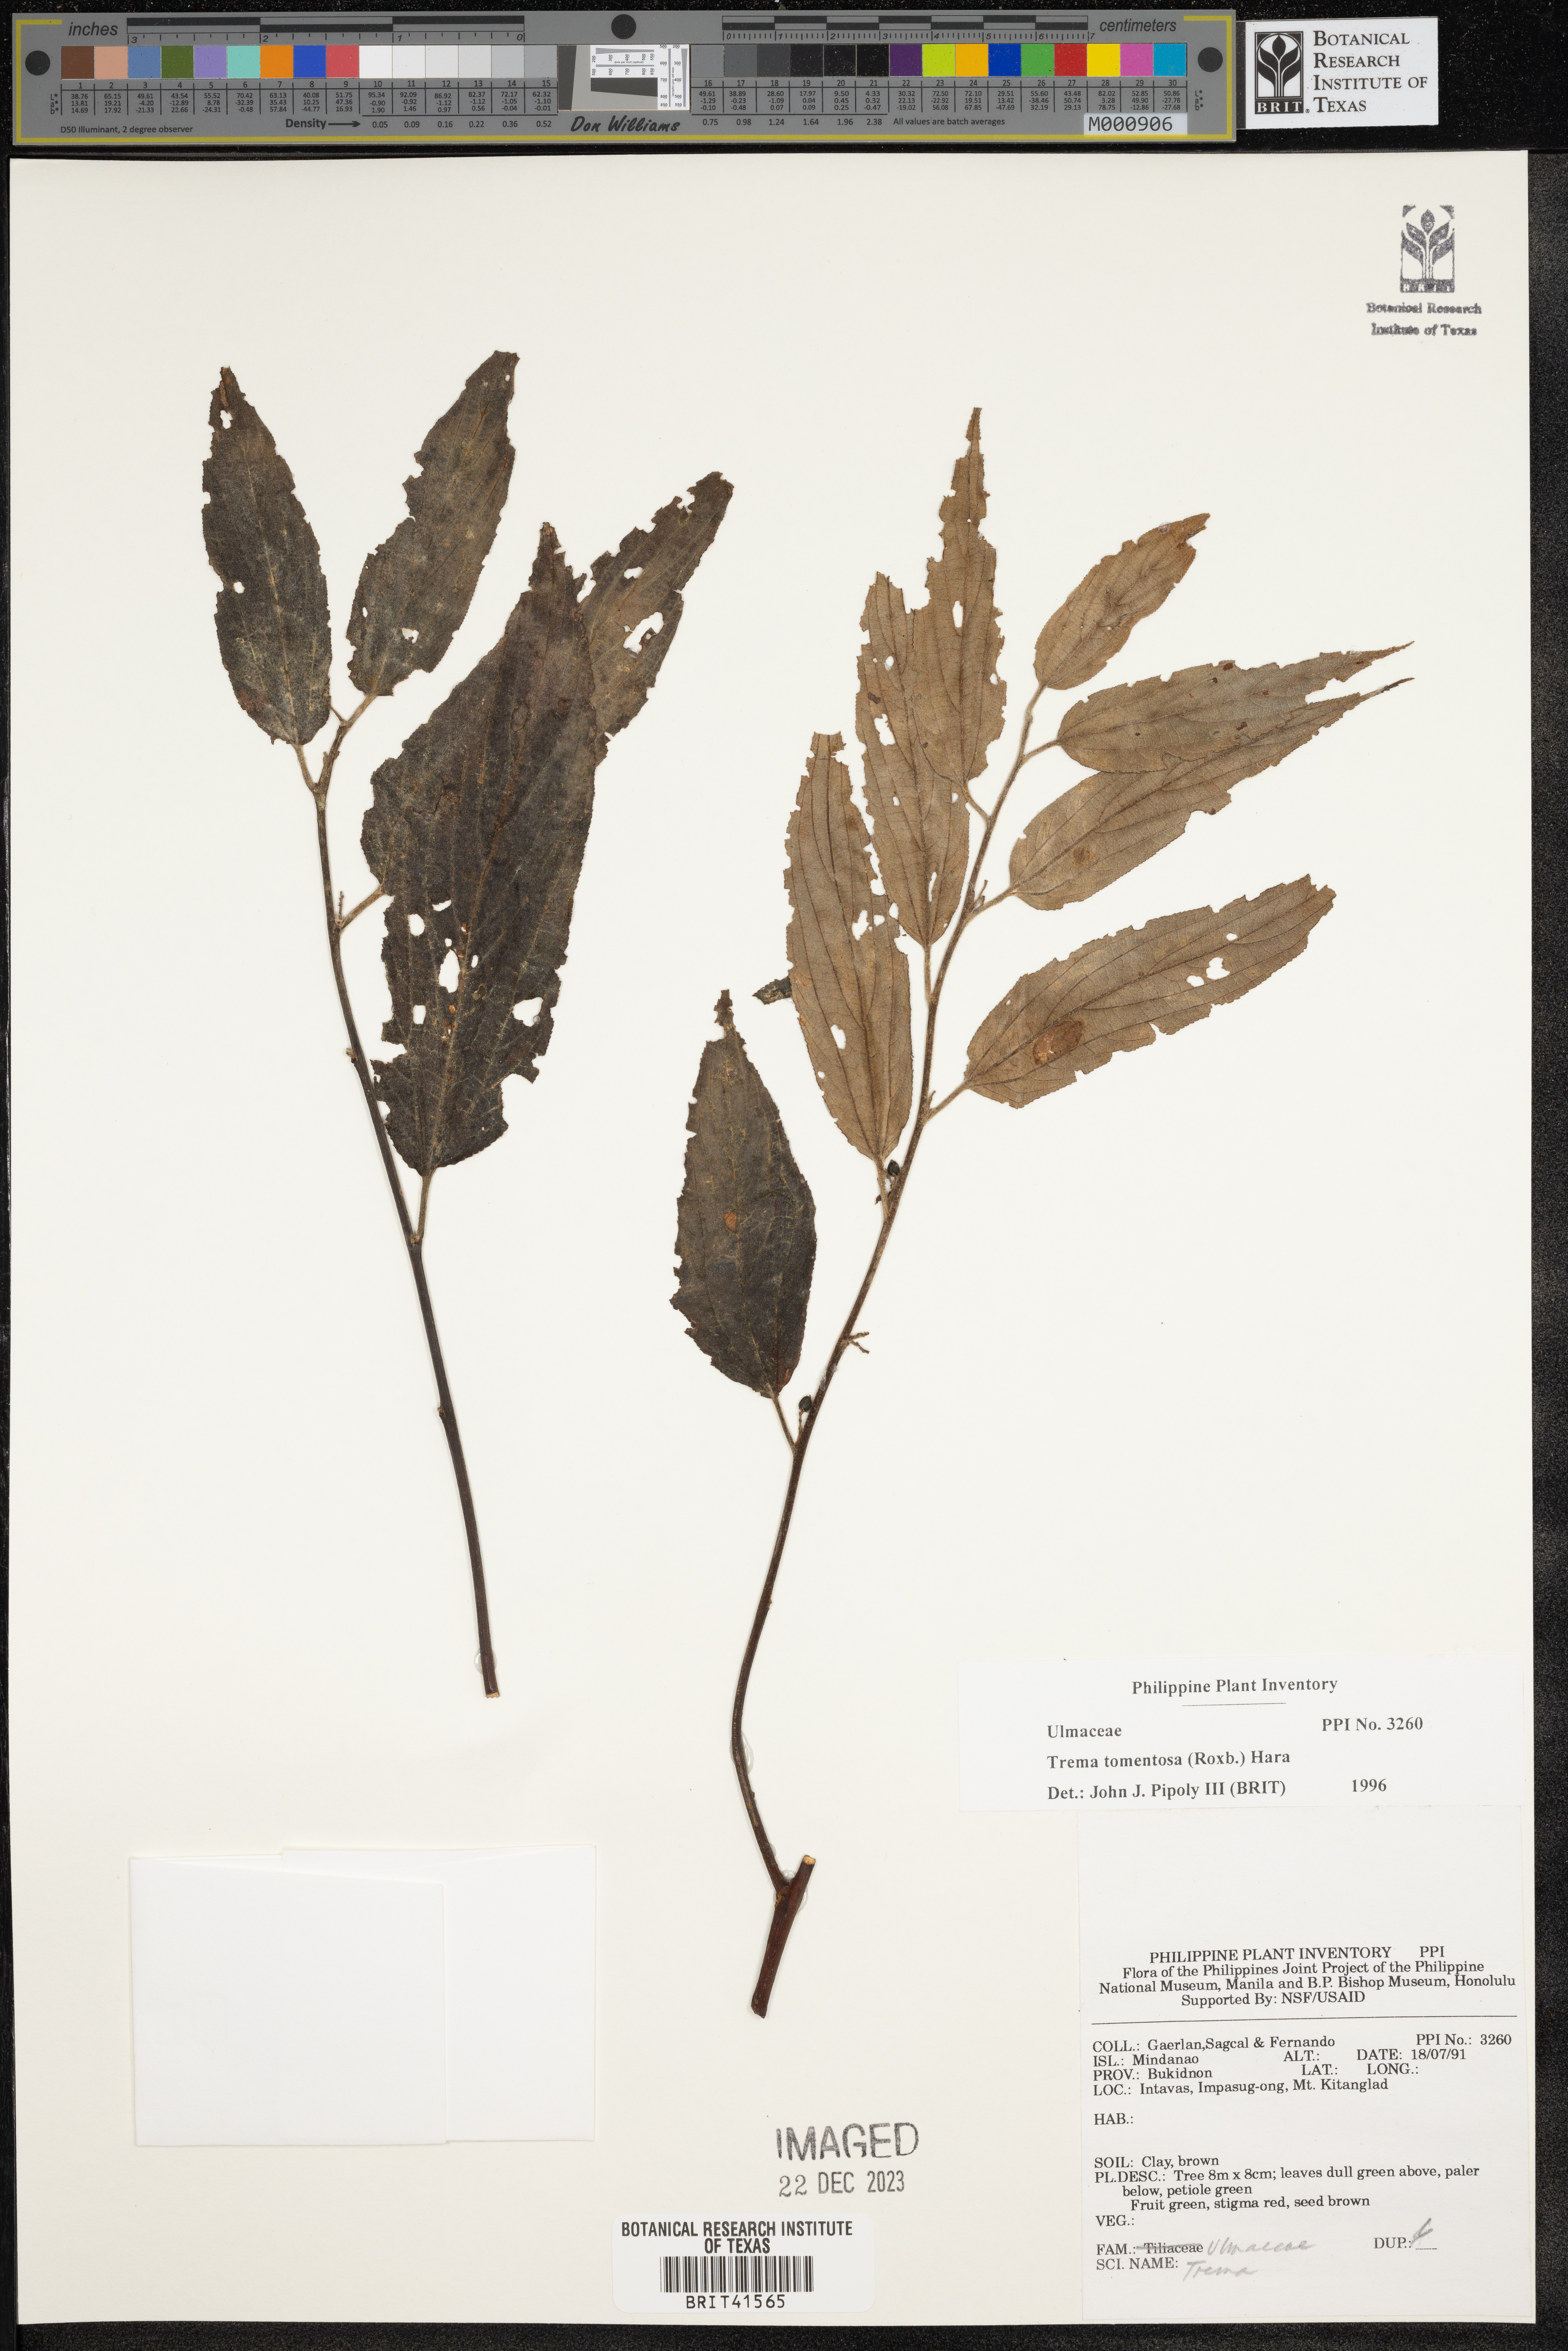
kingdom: Plantae
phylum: Tracheophyta
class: Magnoliopsida
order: Rosales
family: Cannabaceae
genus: Trema
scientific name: Trema tomentosum
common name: Peach-leaf-poisonbush
